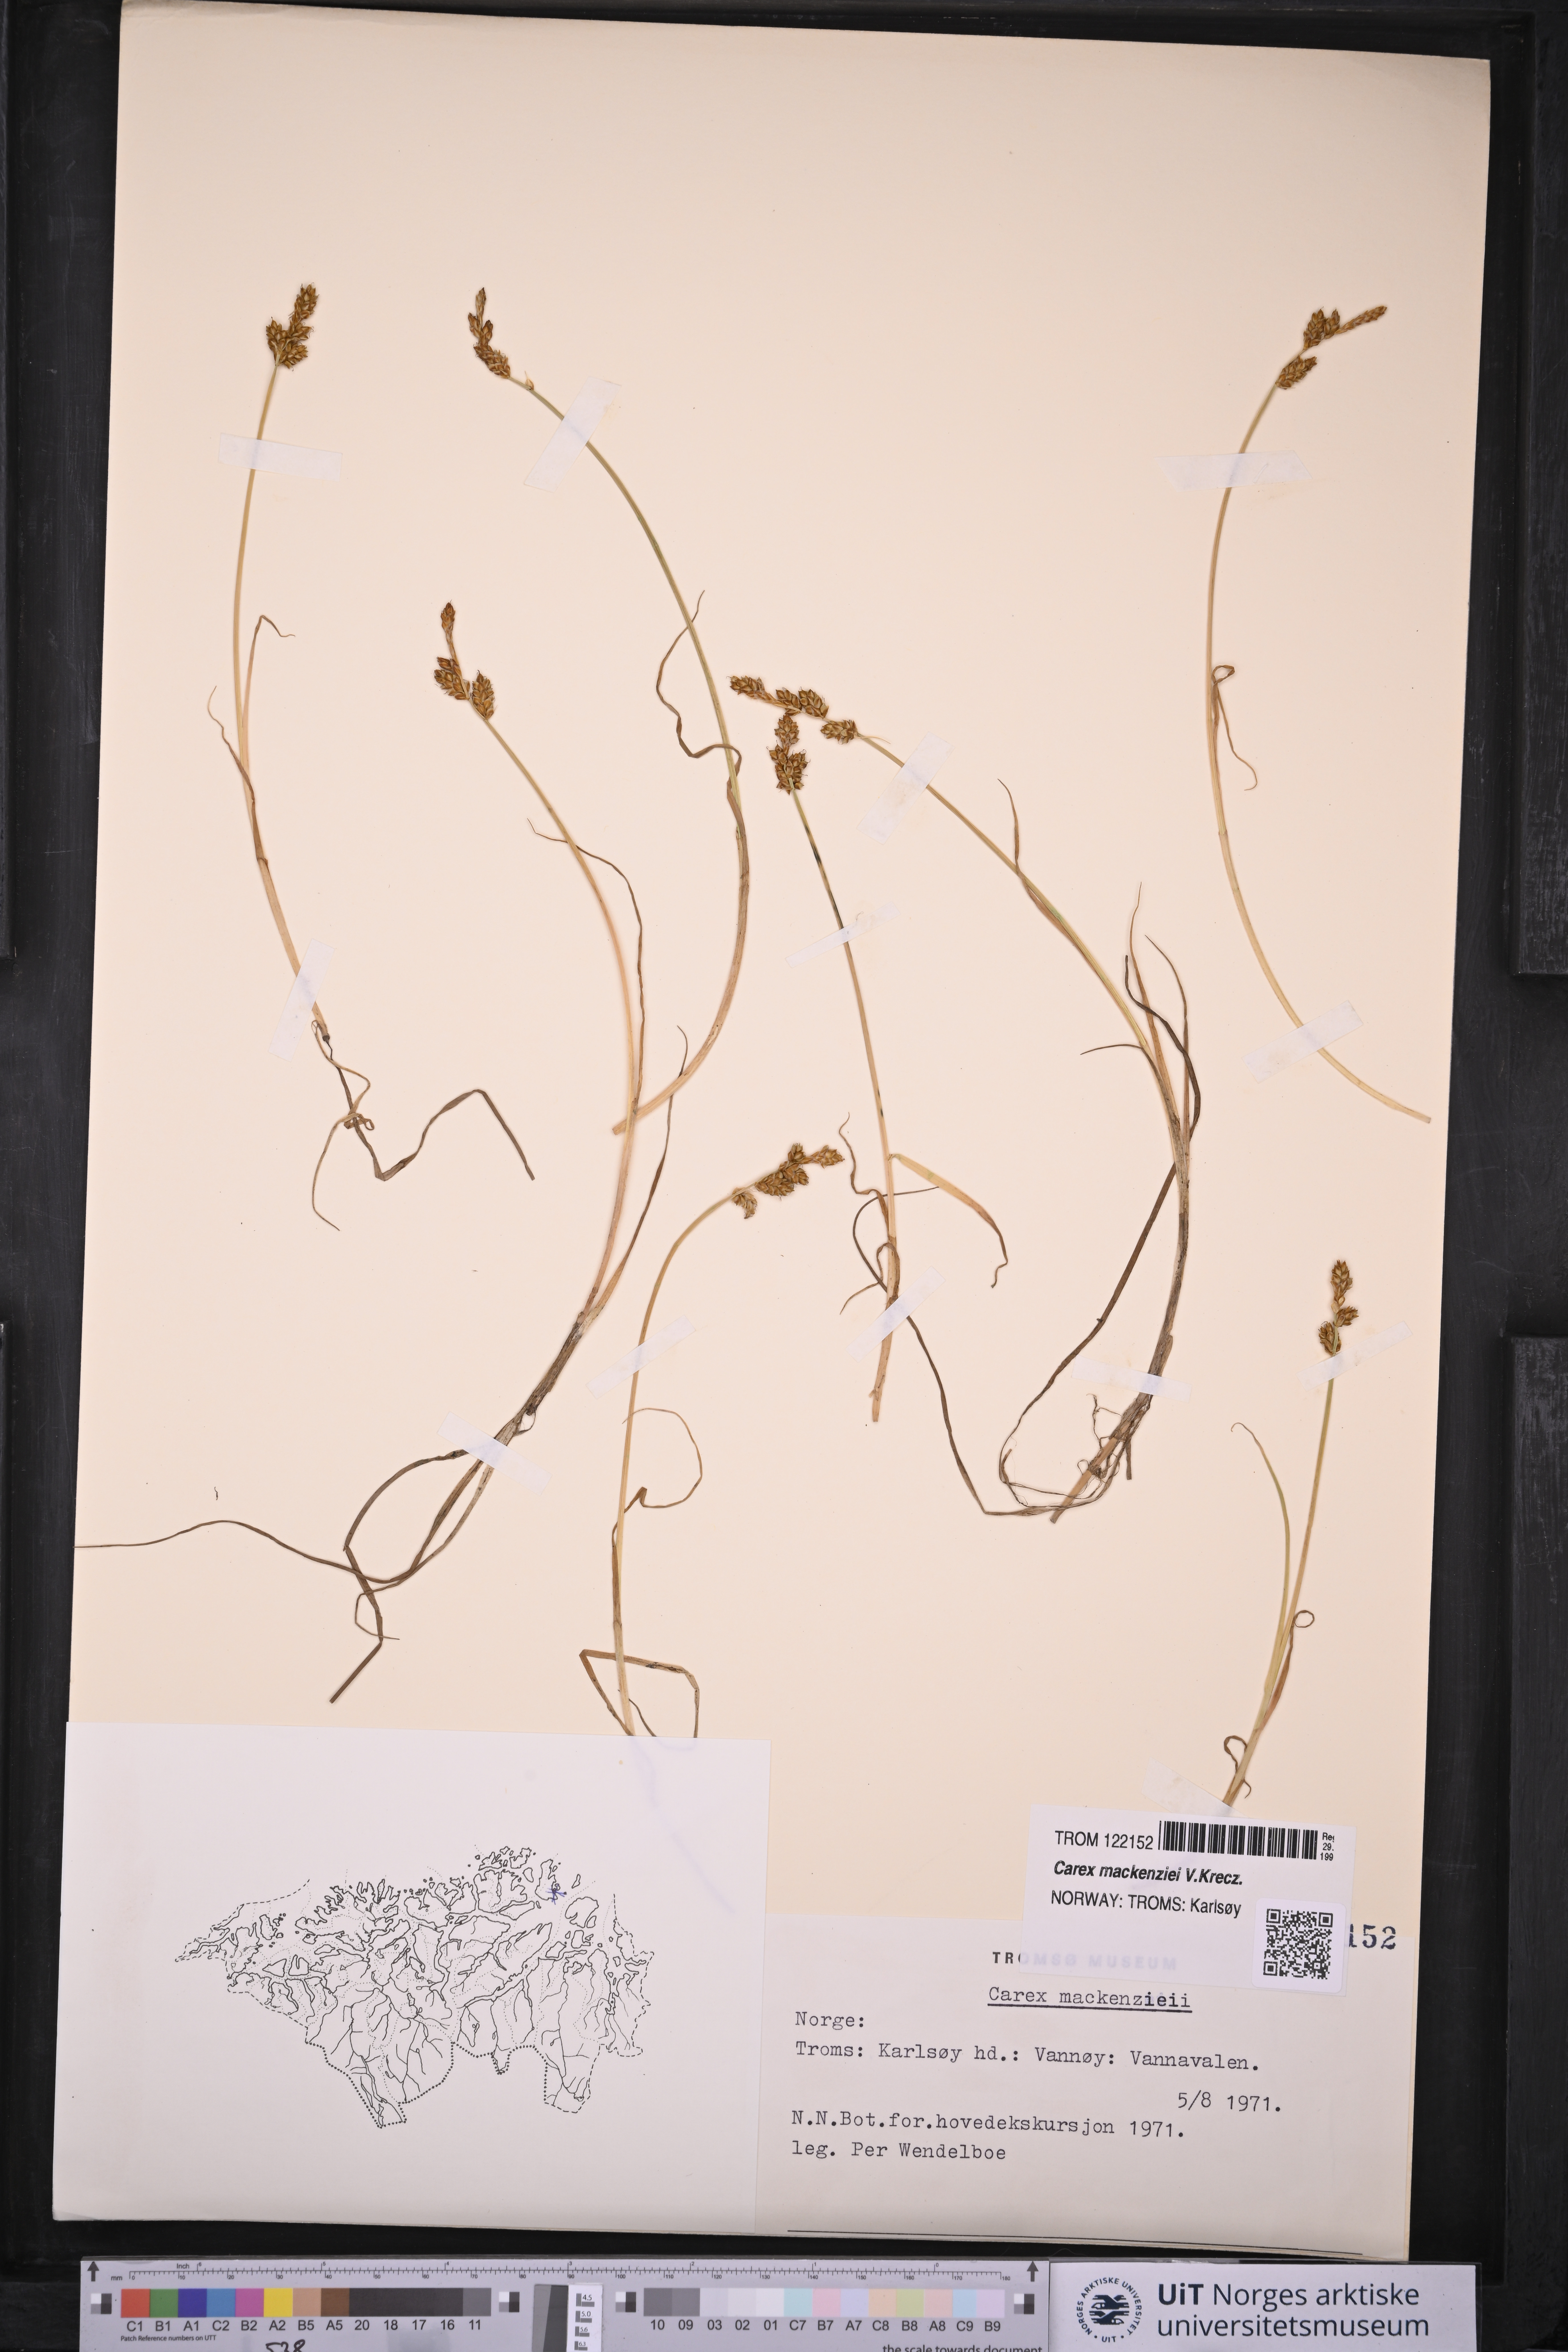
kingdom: Plantae
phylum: Tracheophyta
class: Liliopsida
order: Poales
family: Cyperaceae
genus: Carex
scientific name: Carex mackenziei
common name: Mackenzie's sedge
